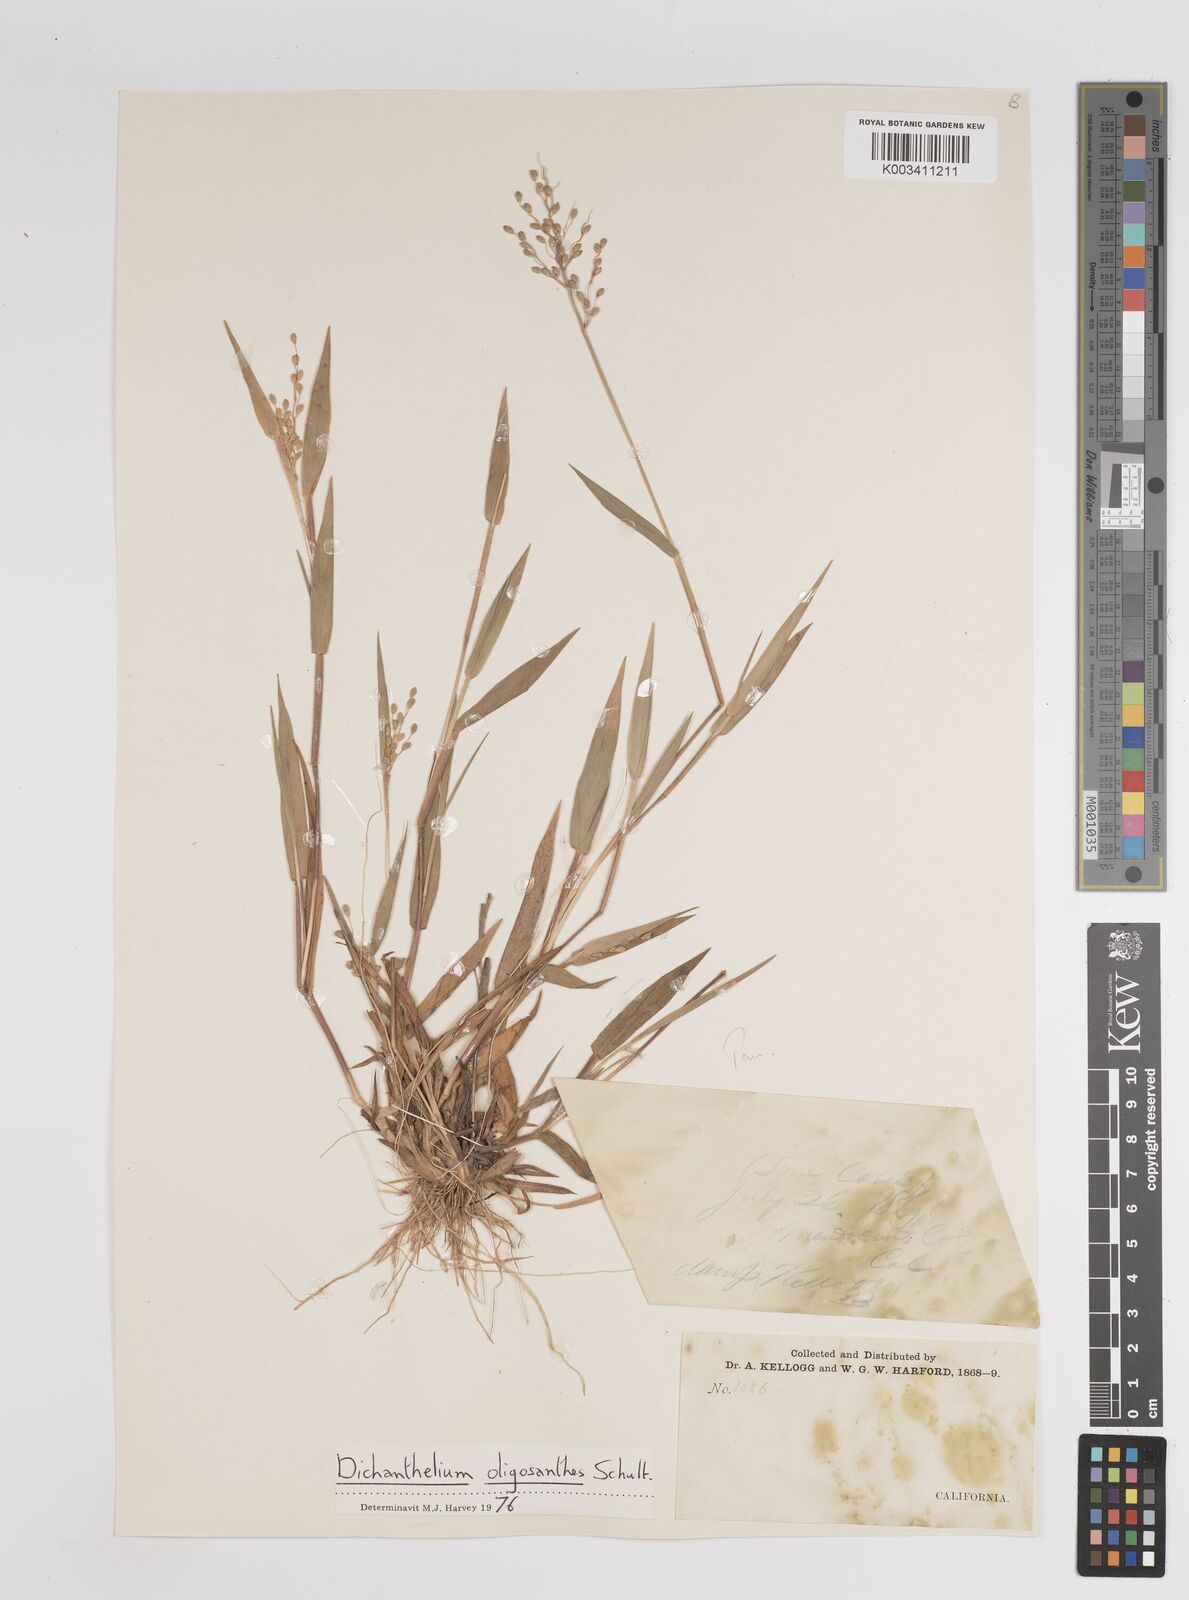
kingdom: Plantae
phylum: Tracheophyta
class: Liliopsida
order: Poales
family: Poaceae
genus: Dichanthelium
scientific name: Dichanthelium oligosanthes
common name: Few-anther obscuregrass
